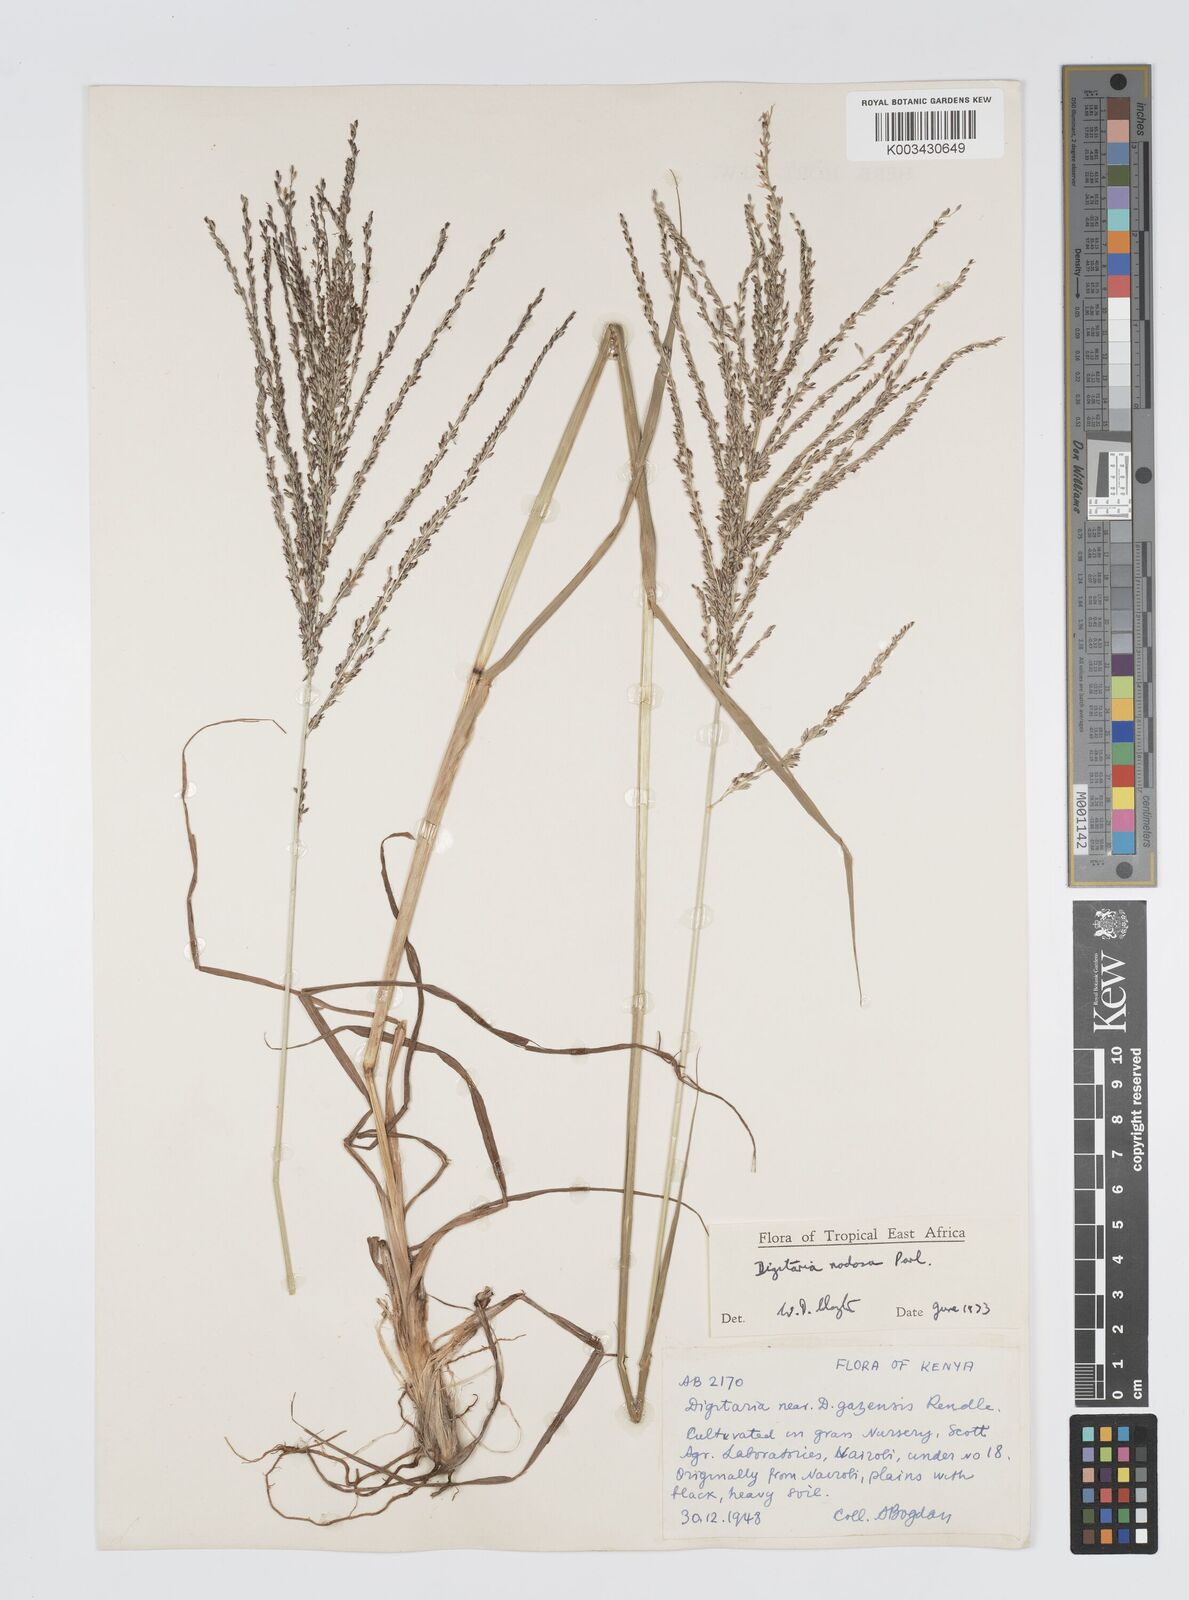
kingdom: Plantae
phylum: Tracheophyta
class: Liliopsida
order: Poales
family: Poaceae
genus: Digitaria
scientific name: Digitaria nodosa
